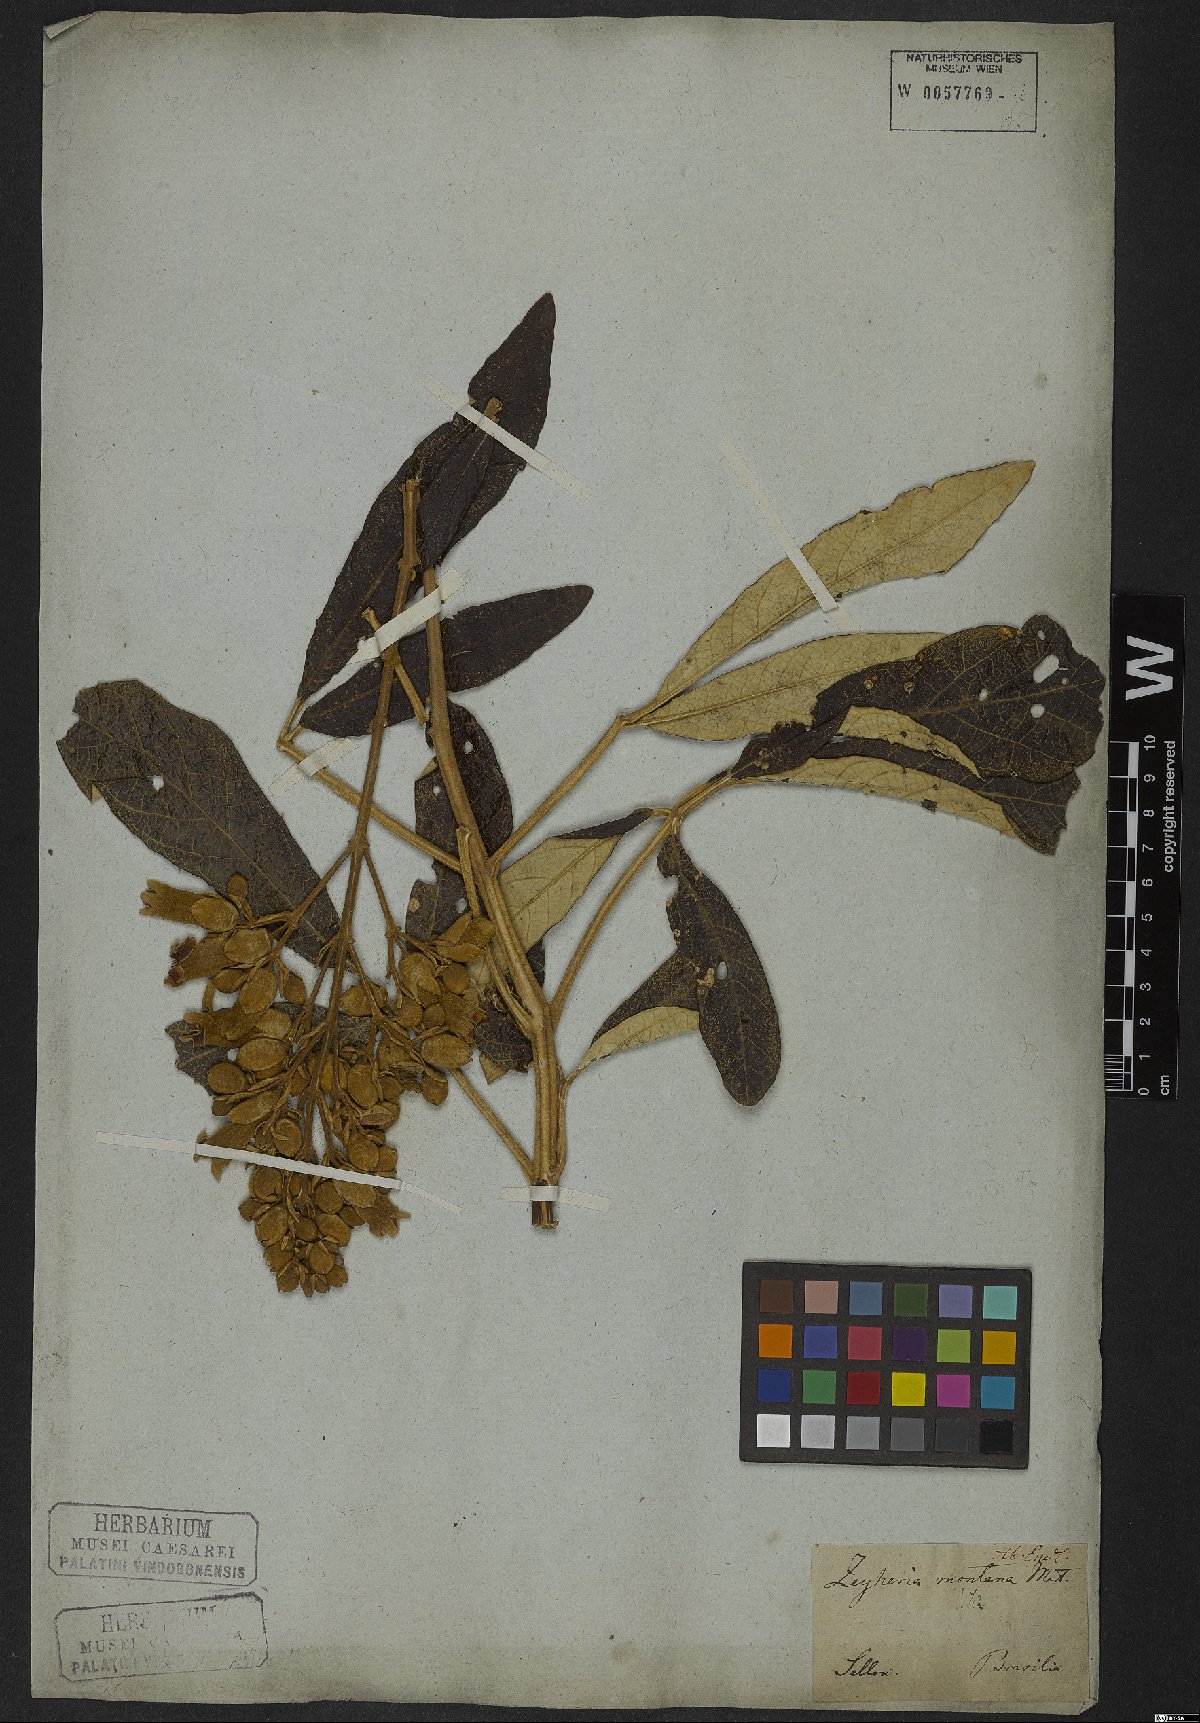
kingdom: Plantae
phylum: Tracheophyta
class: Magnoliopsida
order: Lamiales
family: Bignoniaceae
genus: Zeyheria
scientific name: Zeyheria montana
